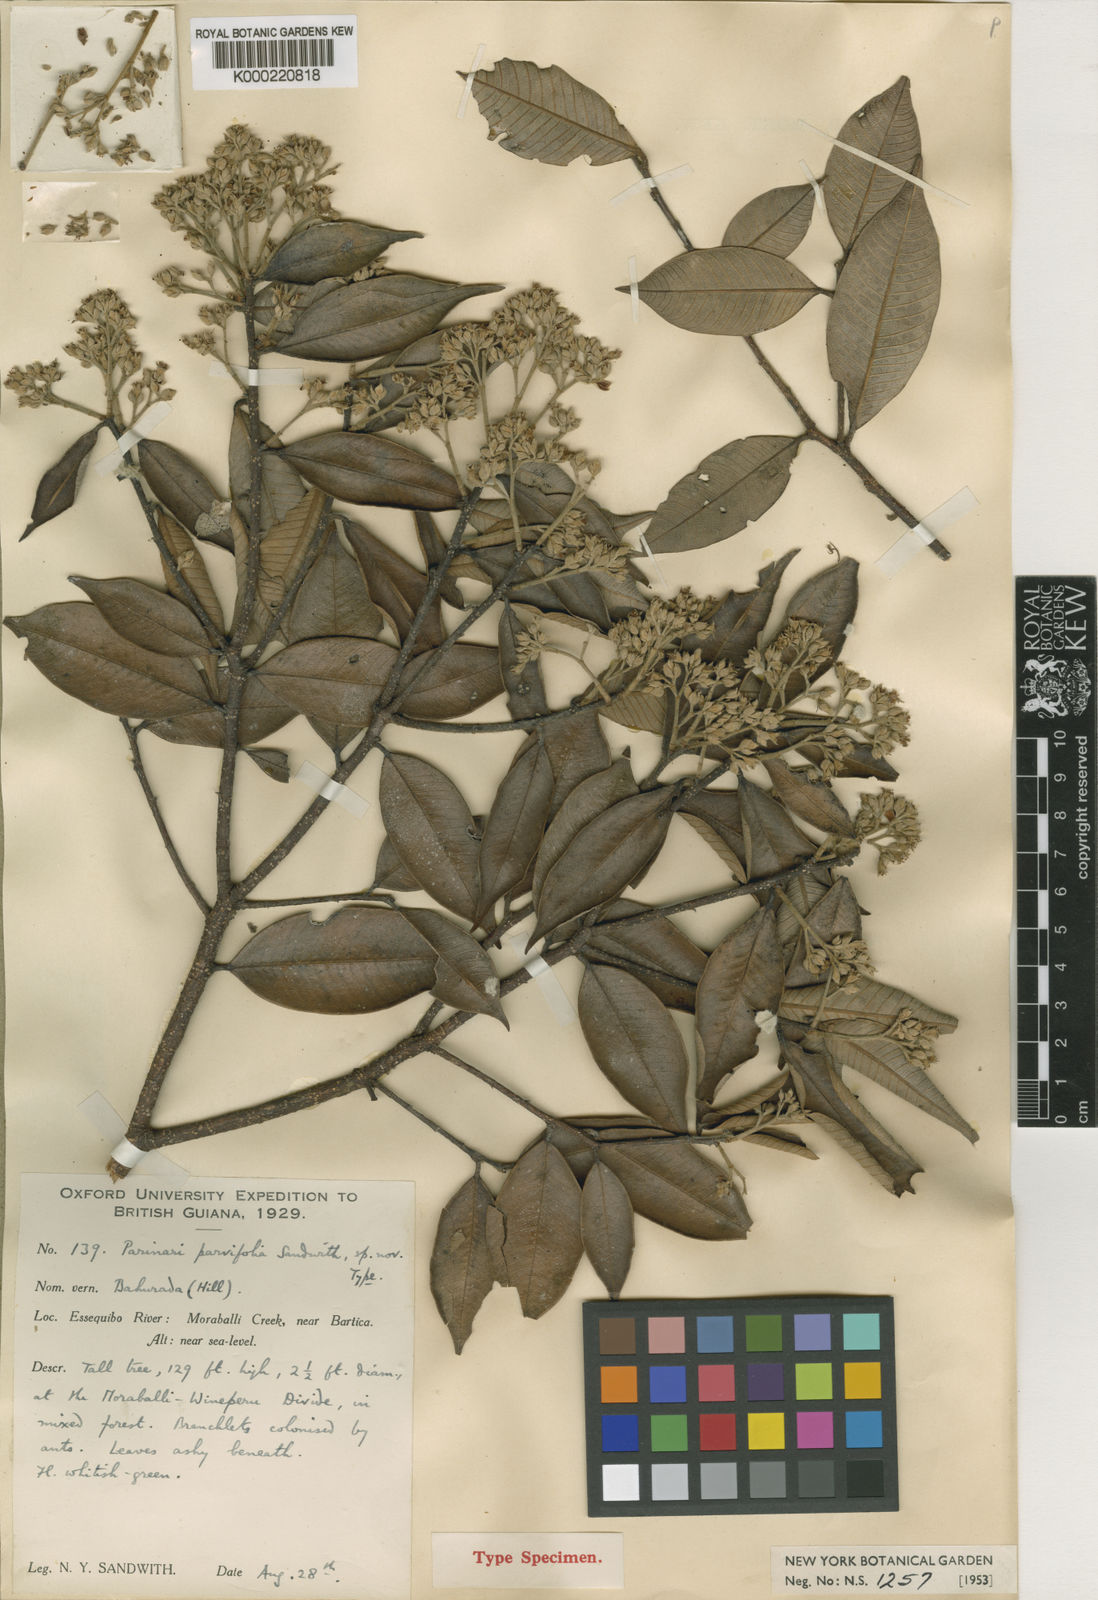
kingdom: Plantae
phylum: Tracheophyta
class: Magnoliopsida
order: Malpighiales
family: Chrysobalanaceae
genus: Parinari
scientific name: Parinari parvifolia
